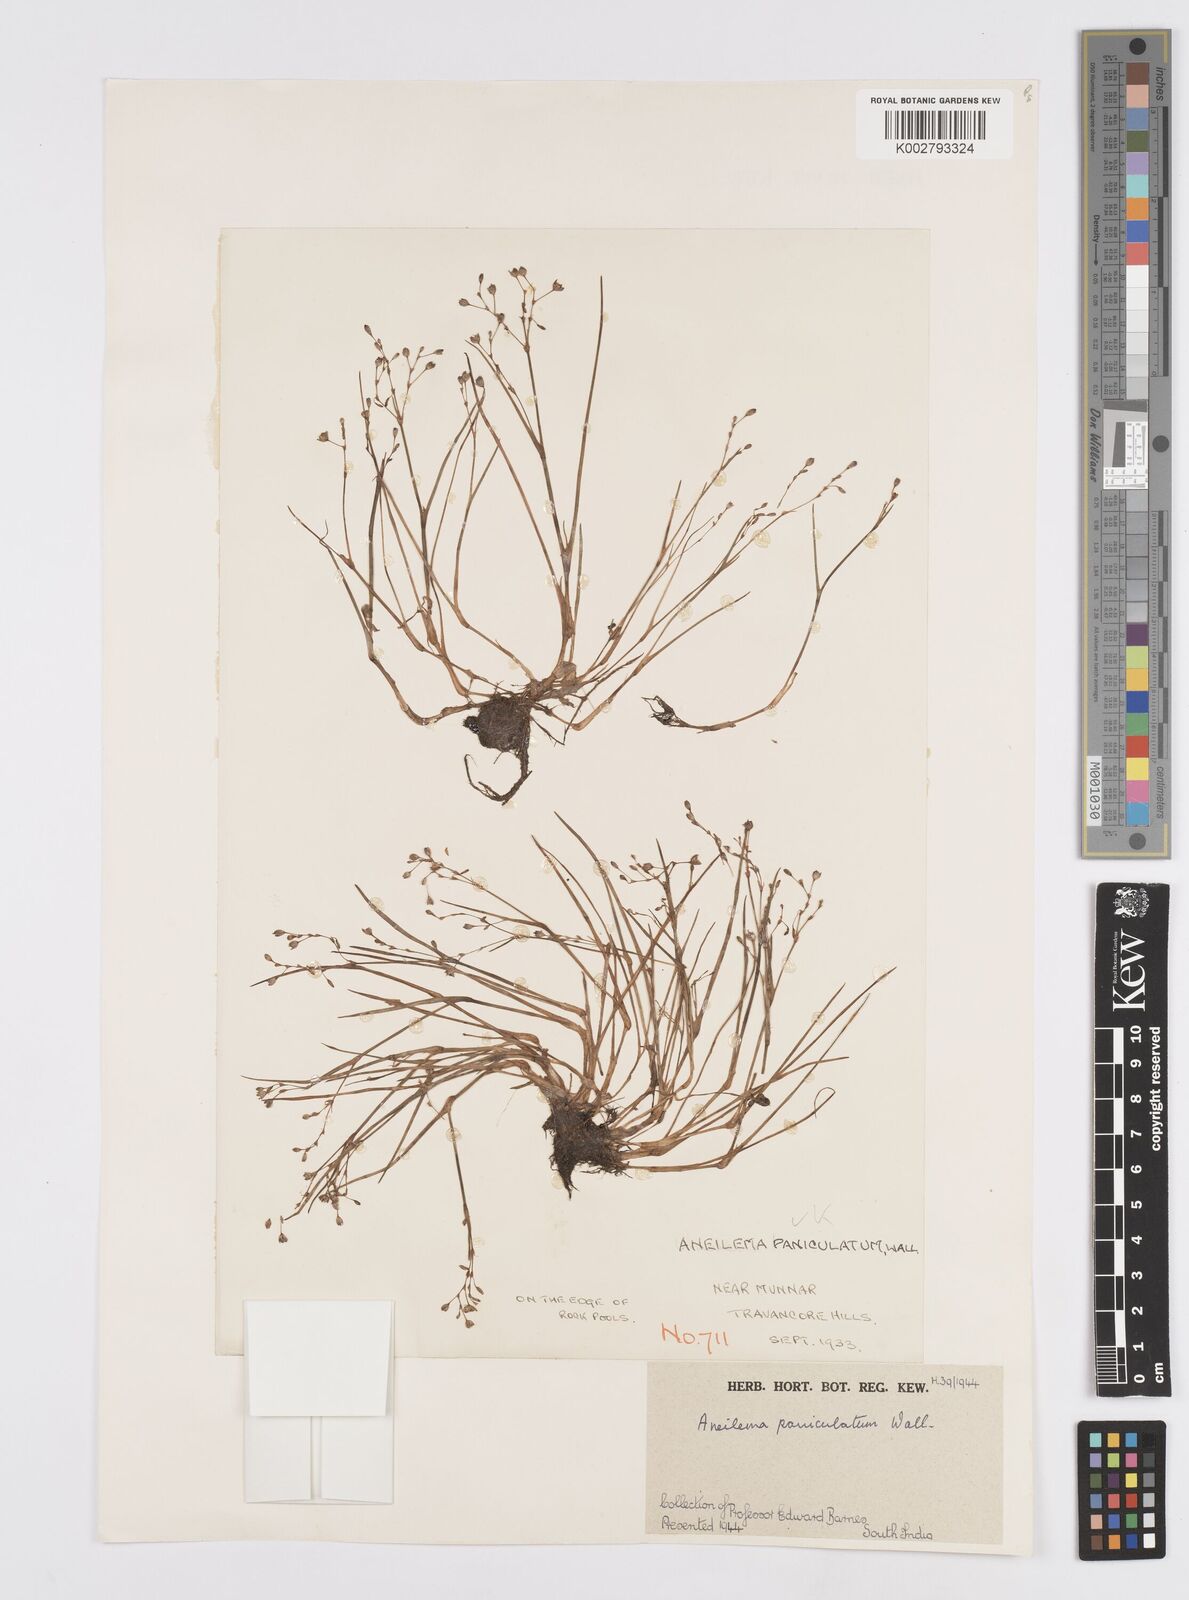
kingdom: Plantae
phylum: Tracheophyta
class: Liliopsida
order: Commelinales
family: Commelinaceae
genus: Murdannia
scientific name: Murdannia semiteres
